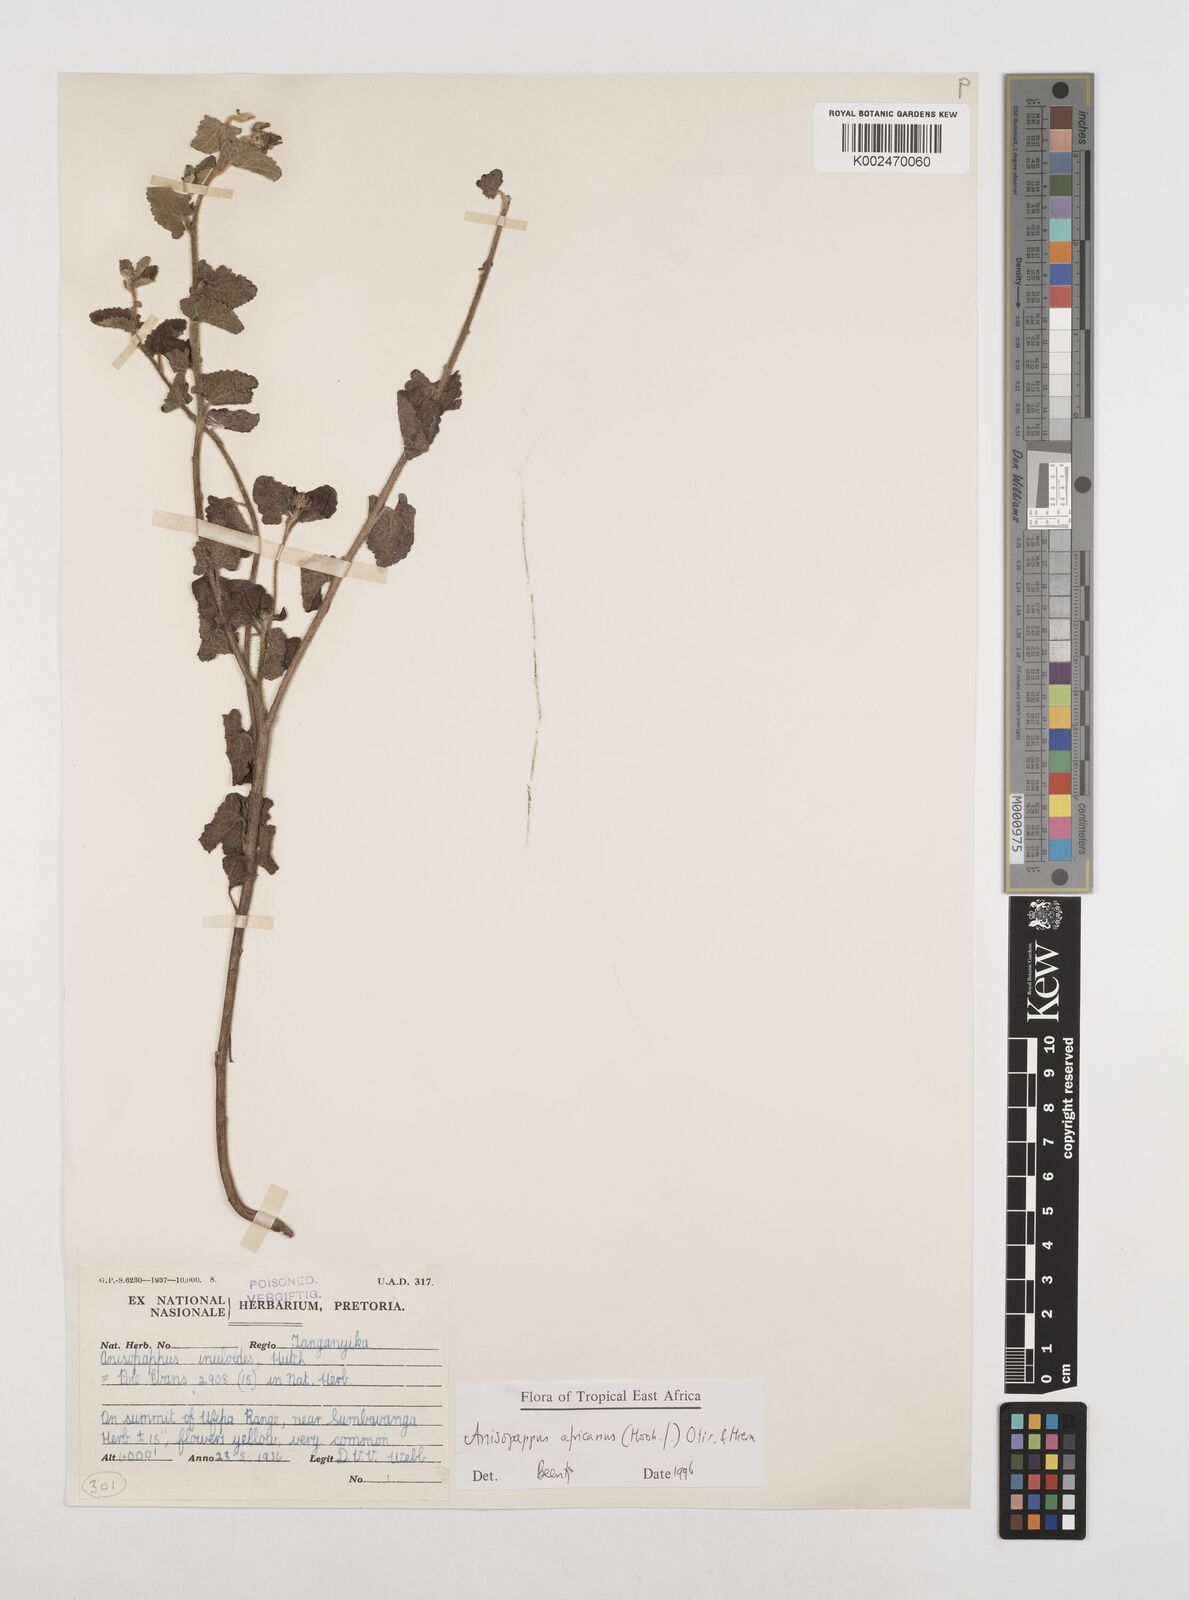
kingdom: Plantae
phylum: Tracheophyta
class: Magnoliopsida
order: Asterales
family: Asteraceae
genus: Anisopappus
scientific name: Anisopappus buchwaldii
